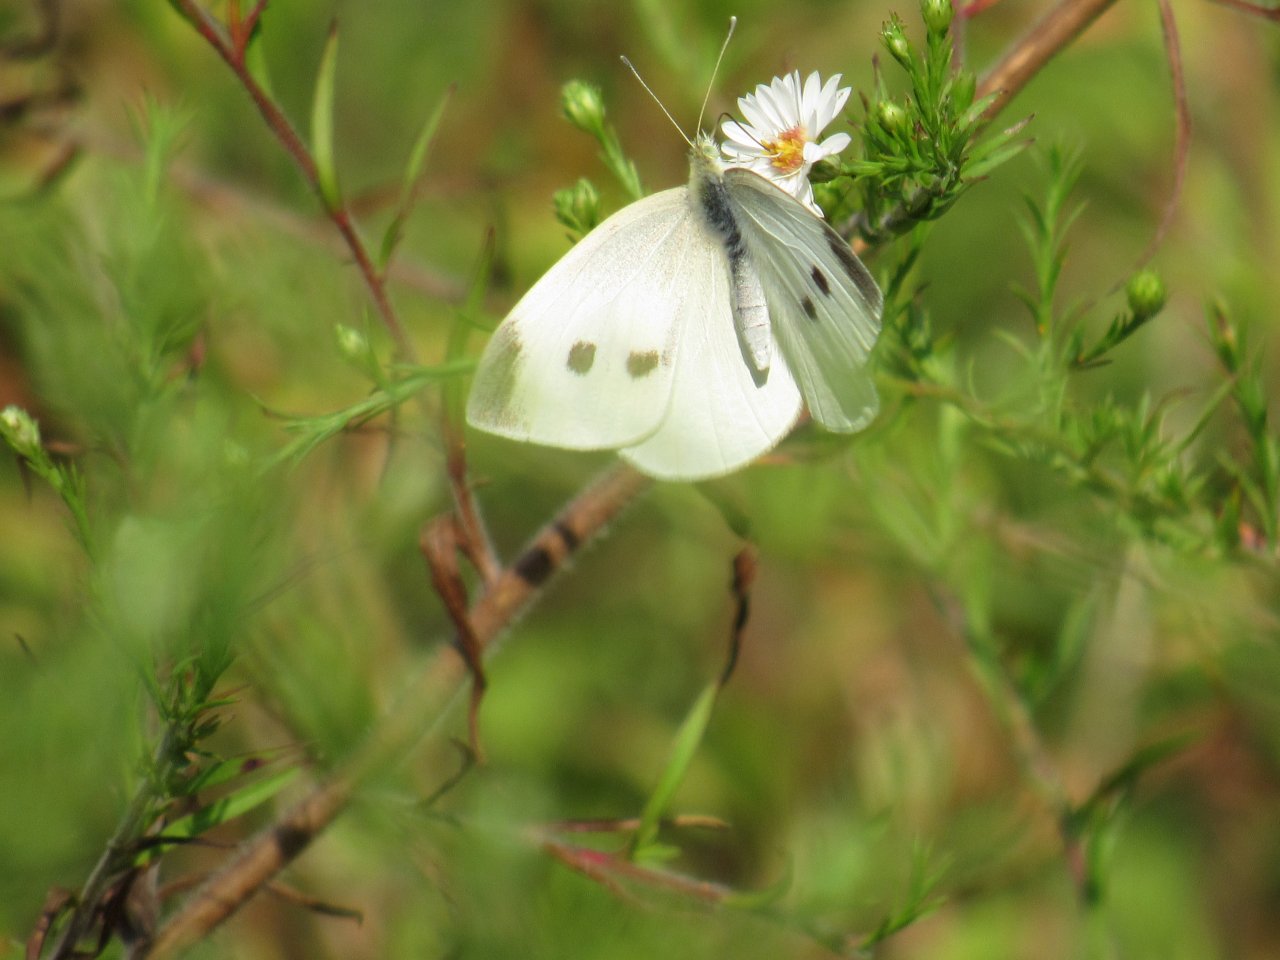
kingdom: Animalia
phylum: Arthropoda
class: Insecta
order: Lepidoptera
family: Pieridae
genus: Pieris
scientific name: Pieris rapae
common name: Cabbage White
